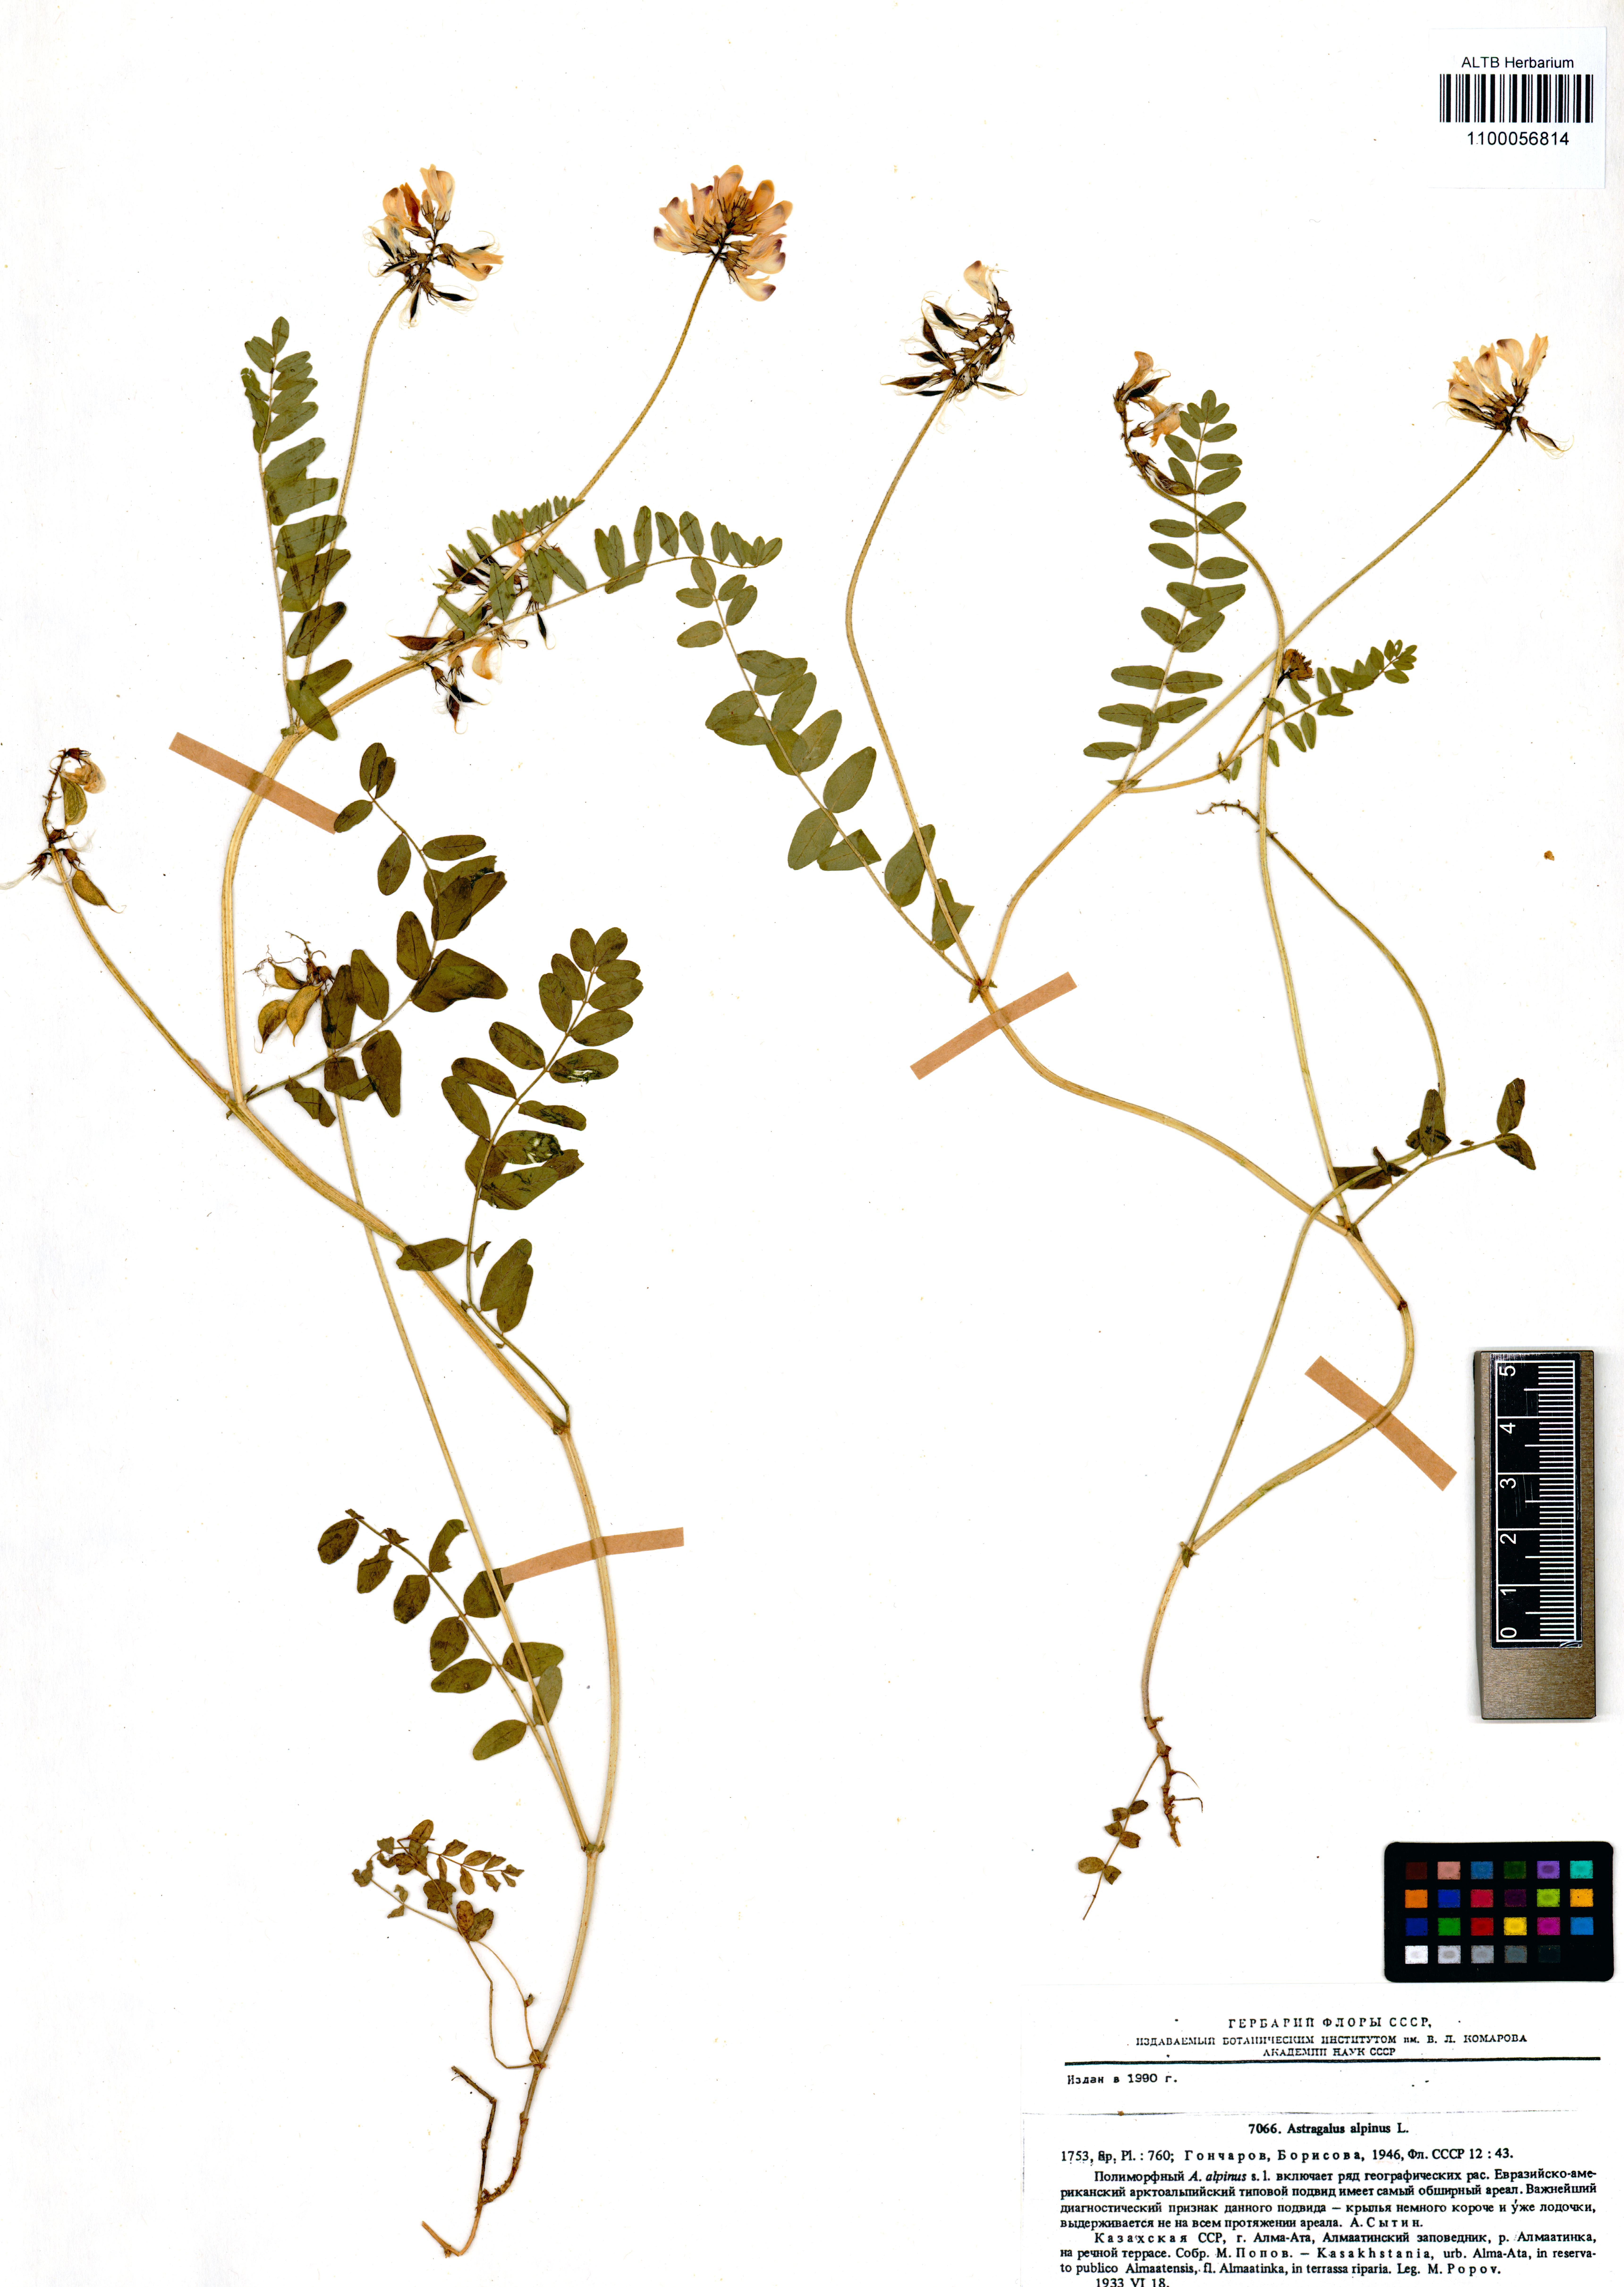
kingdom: Plantae
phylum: Tracheophyta
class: Magnoliopsida
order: Fabales
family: Fabaceae
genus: Astragalus
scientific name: Astragalus alpinus
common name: Alpine milk-vetch
